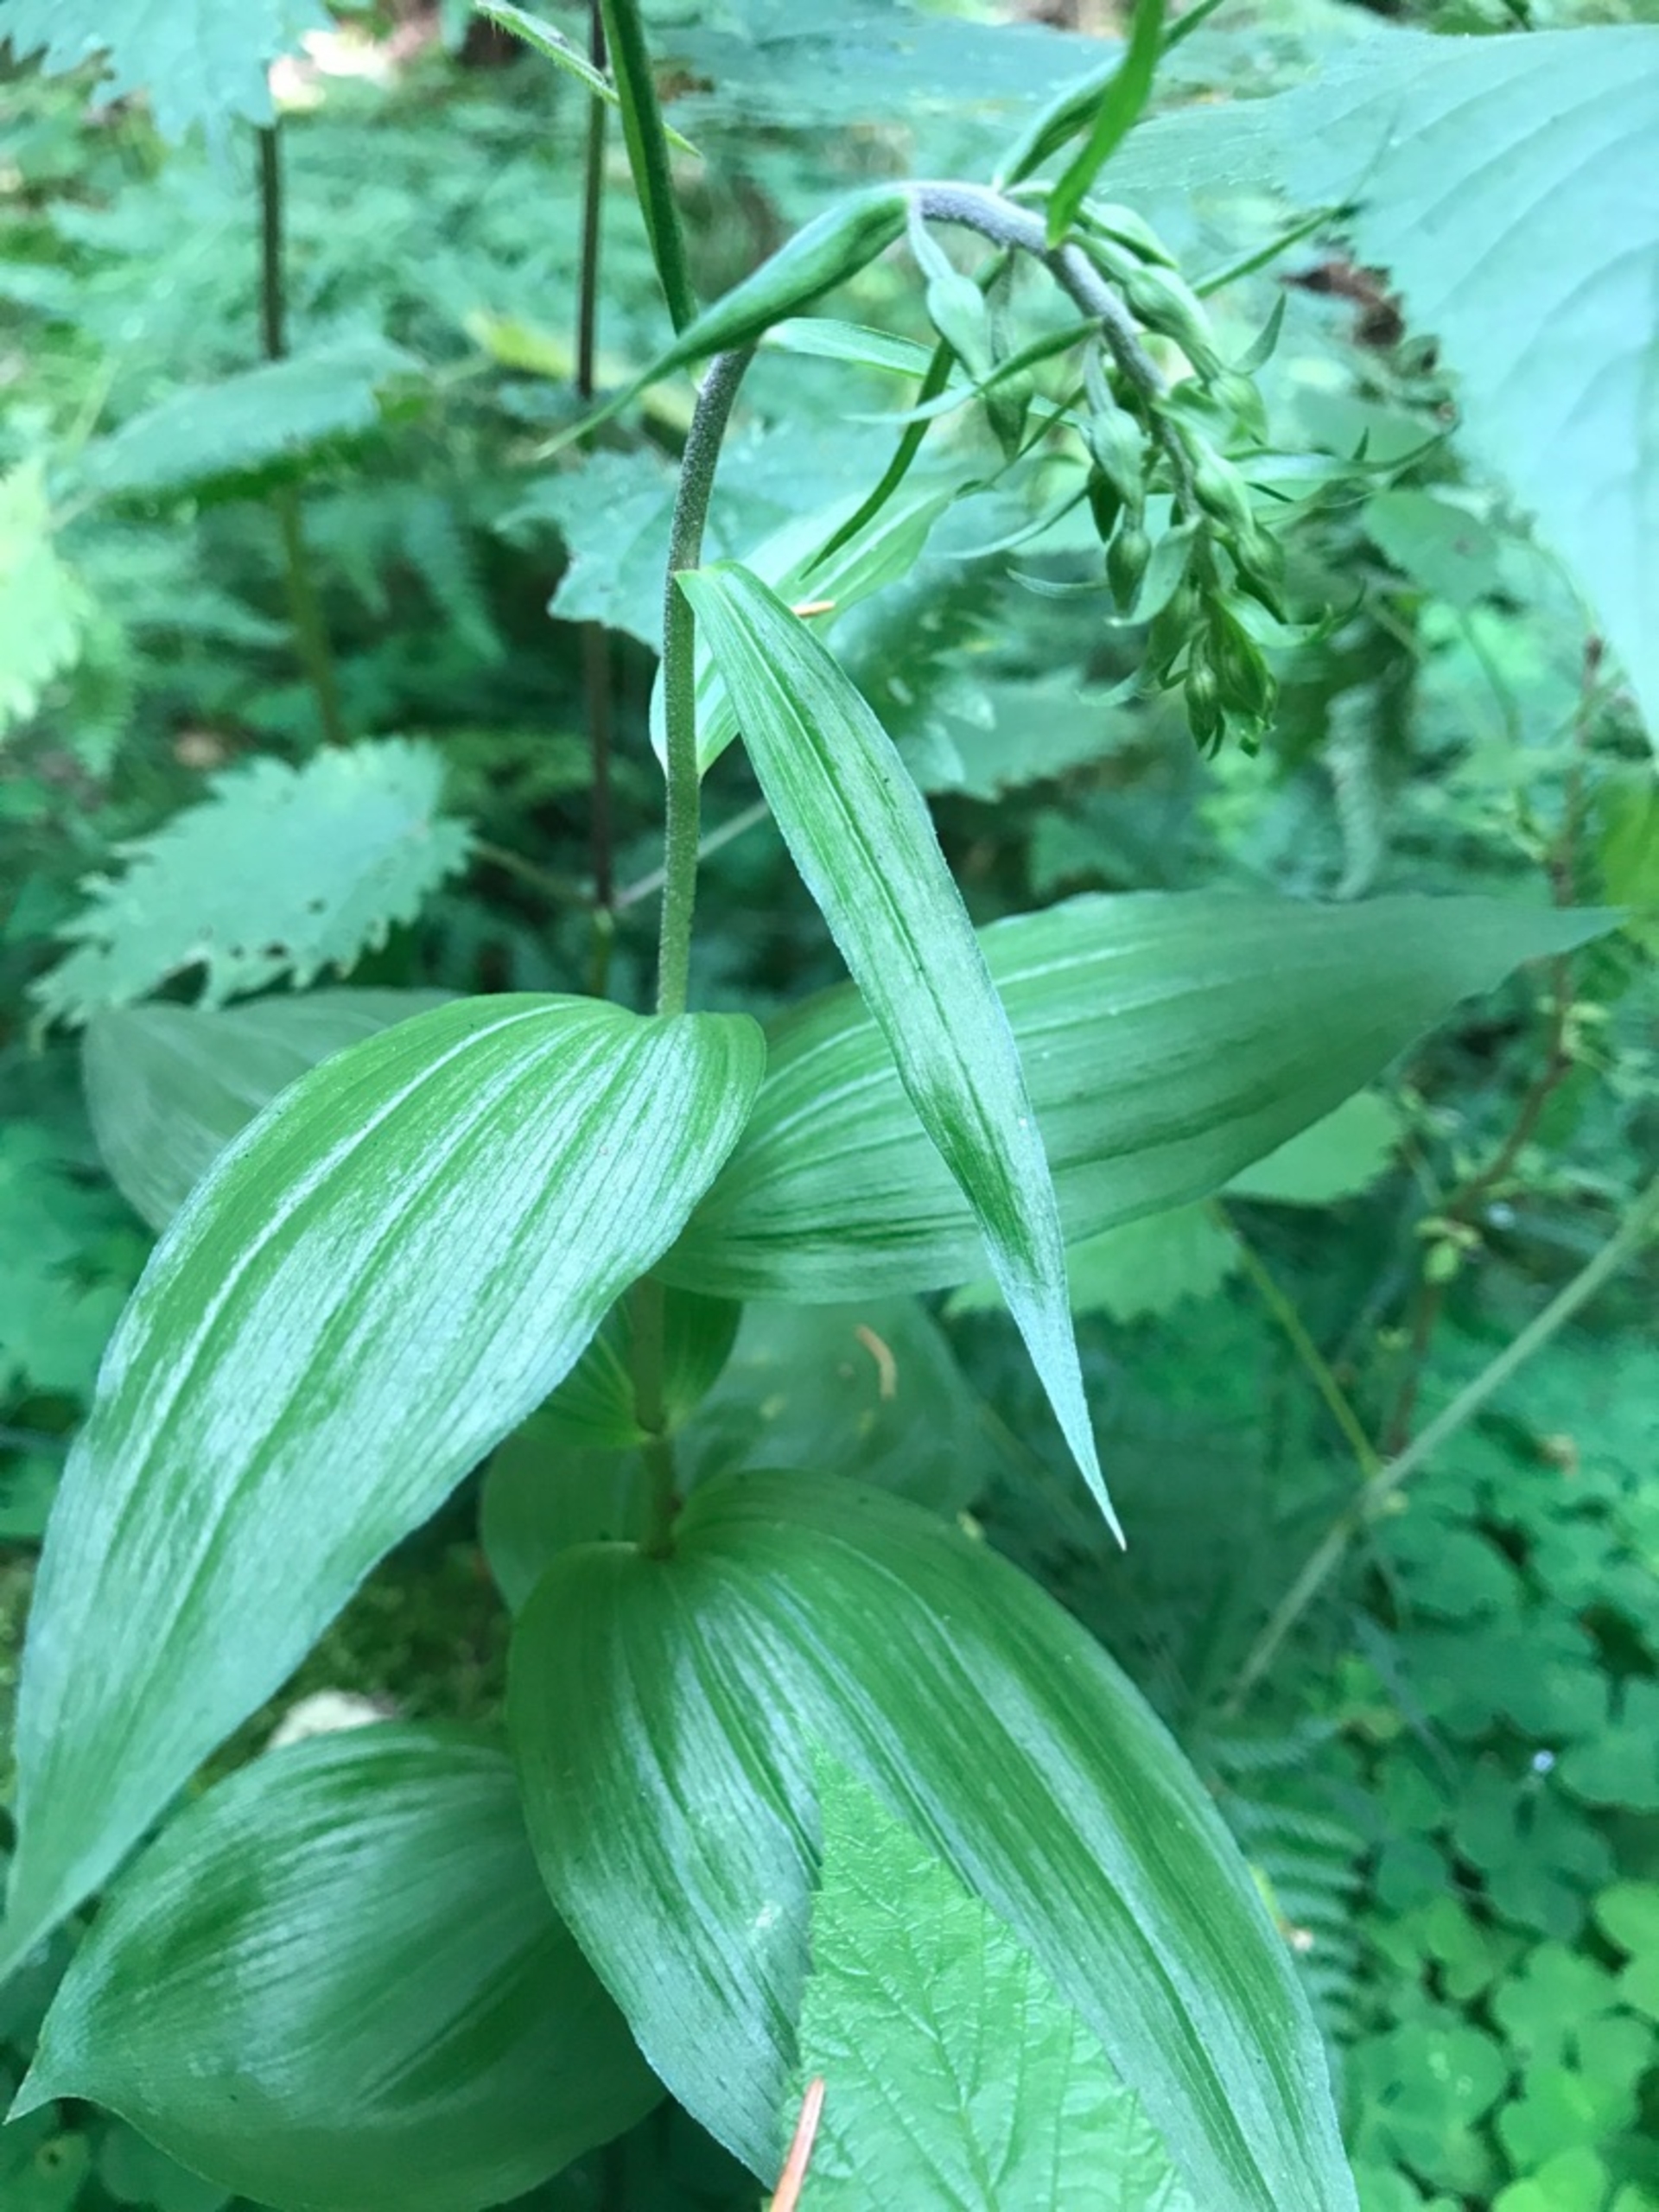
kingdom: Plantae
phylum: Tracheophyta
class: Liliopsida
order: Asparagales
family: Orchidaceae
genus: Epipactis
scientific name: Epipactis helleborine
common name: Skov-hullæbe
